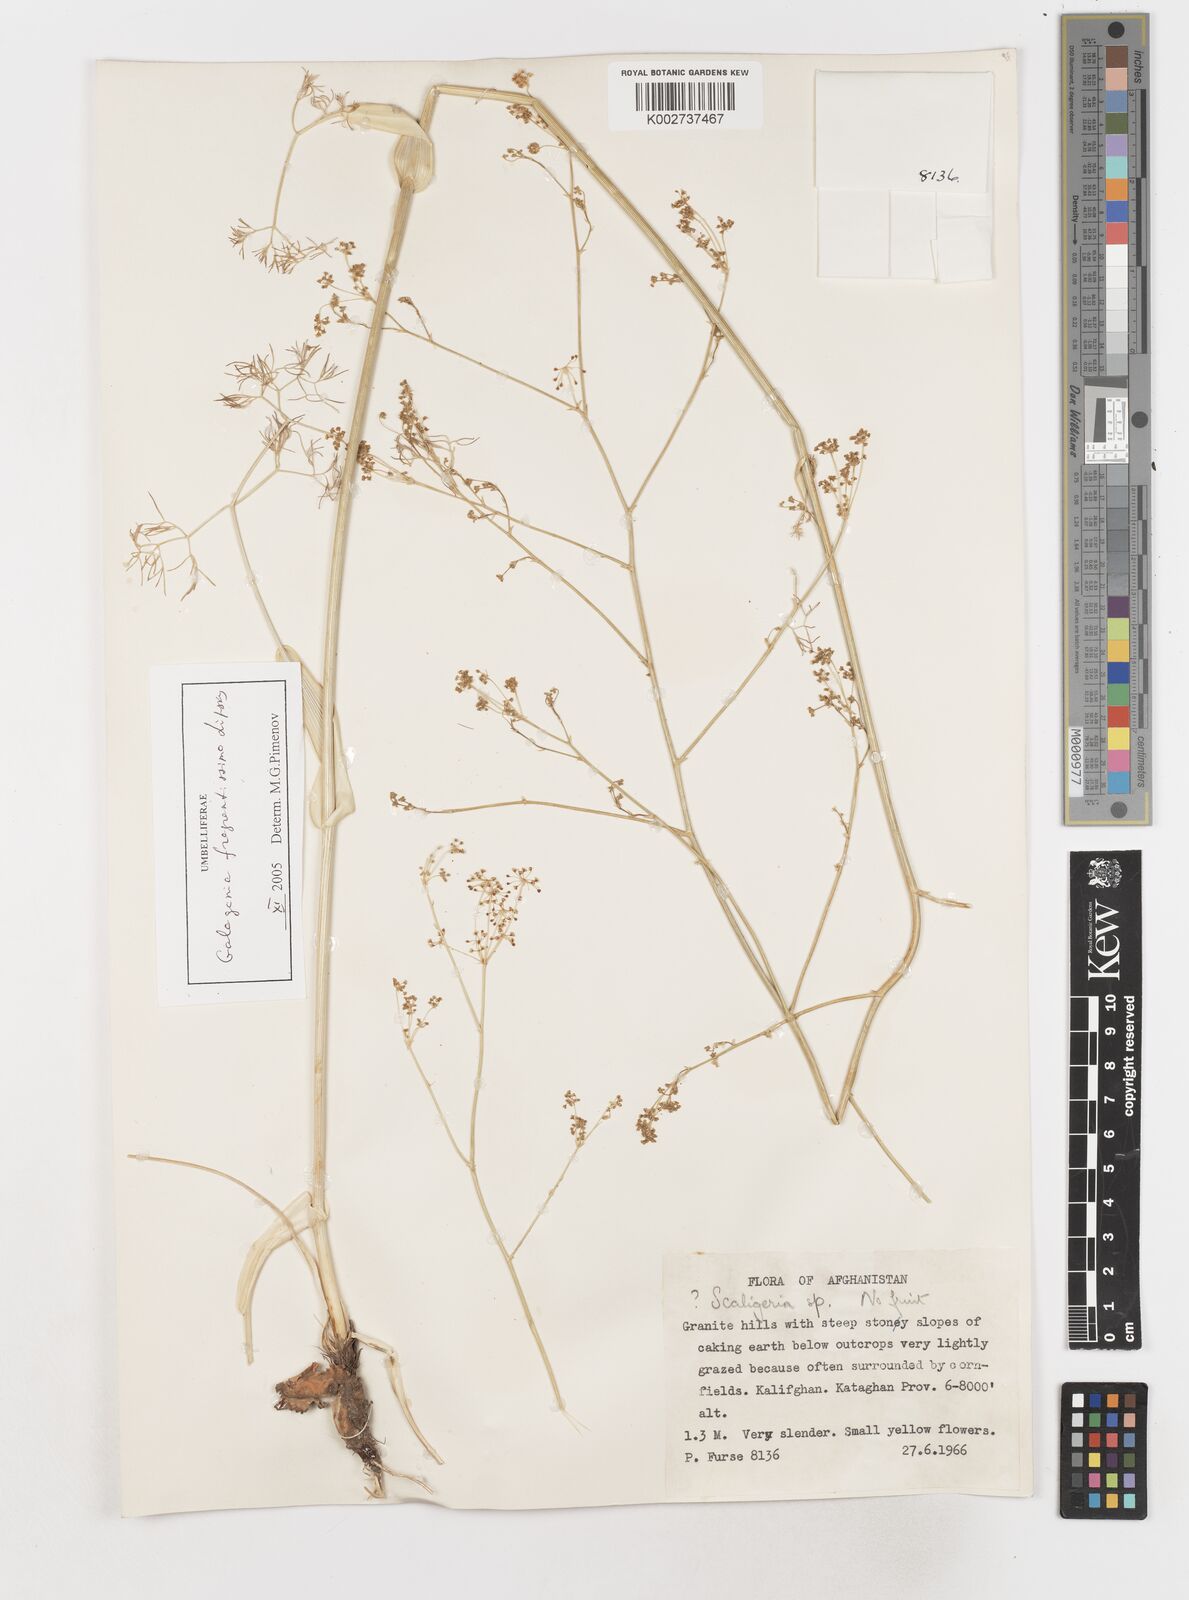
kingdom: Plantae
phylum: Tracheophyta
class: Magnoliopsida
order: Apiales
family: Apiaceae
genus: Scaligeria
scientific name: Scaligeria
